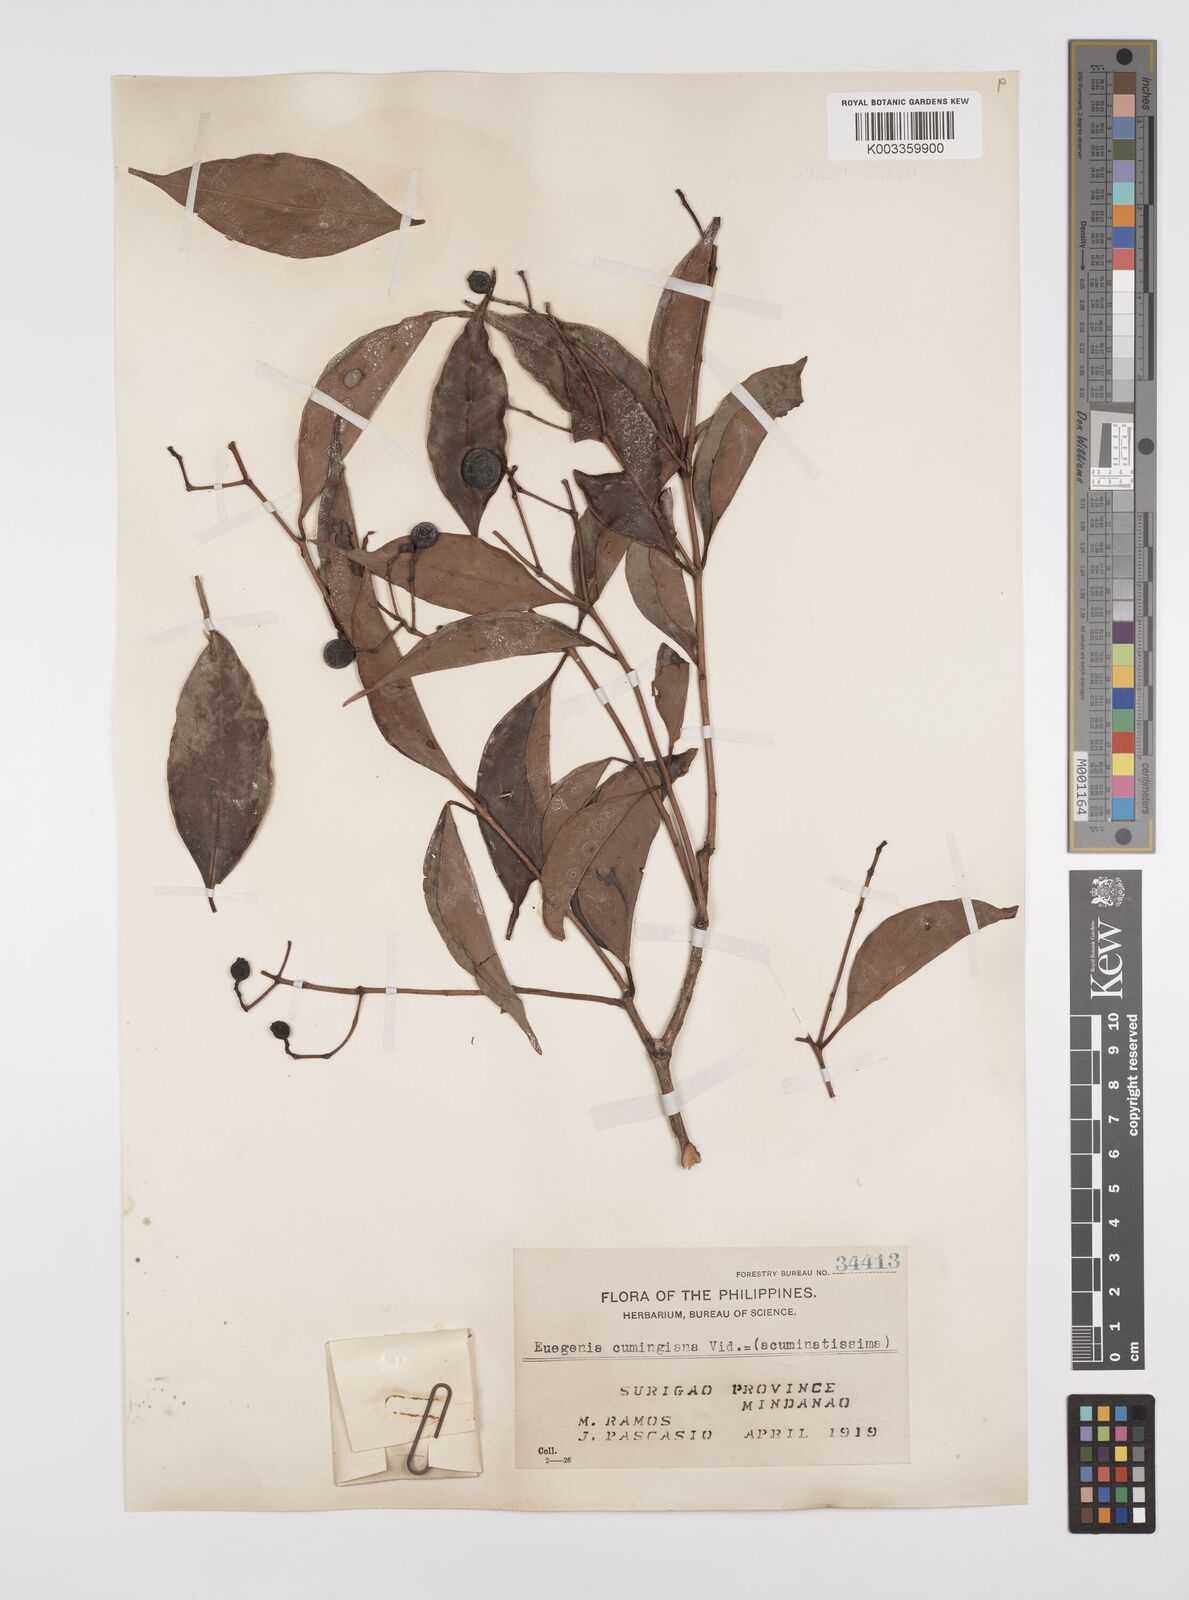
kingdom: Plantae
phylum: Tracheophyta
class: Magnoliopsida
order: Myrtales
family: Myrtaceae
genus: Syzygium
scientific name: Syzygium acuminatissimum
